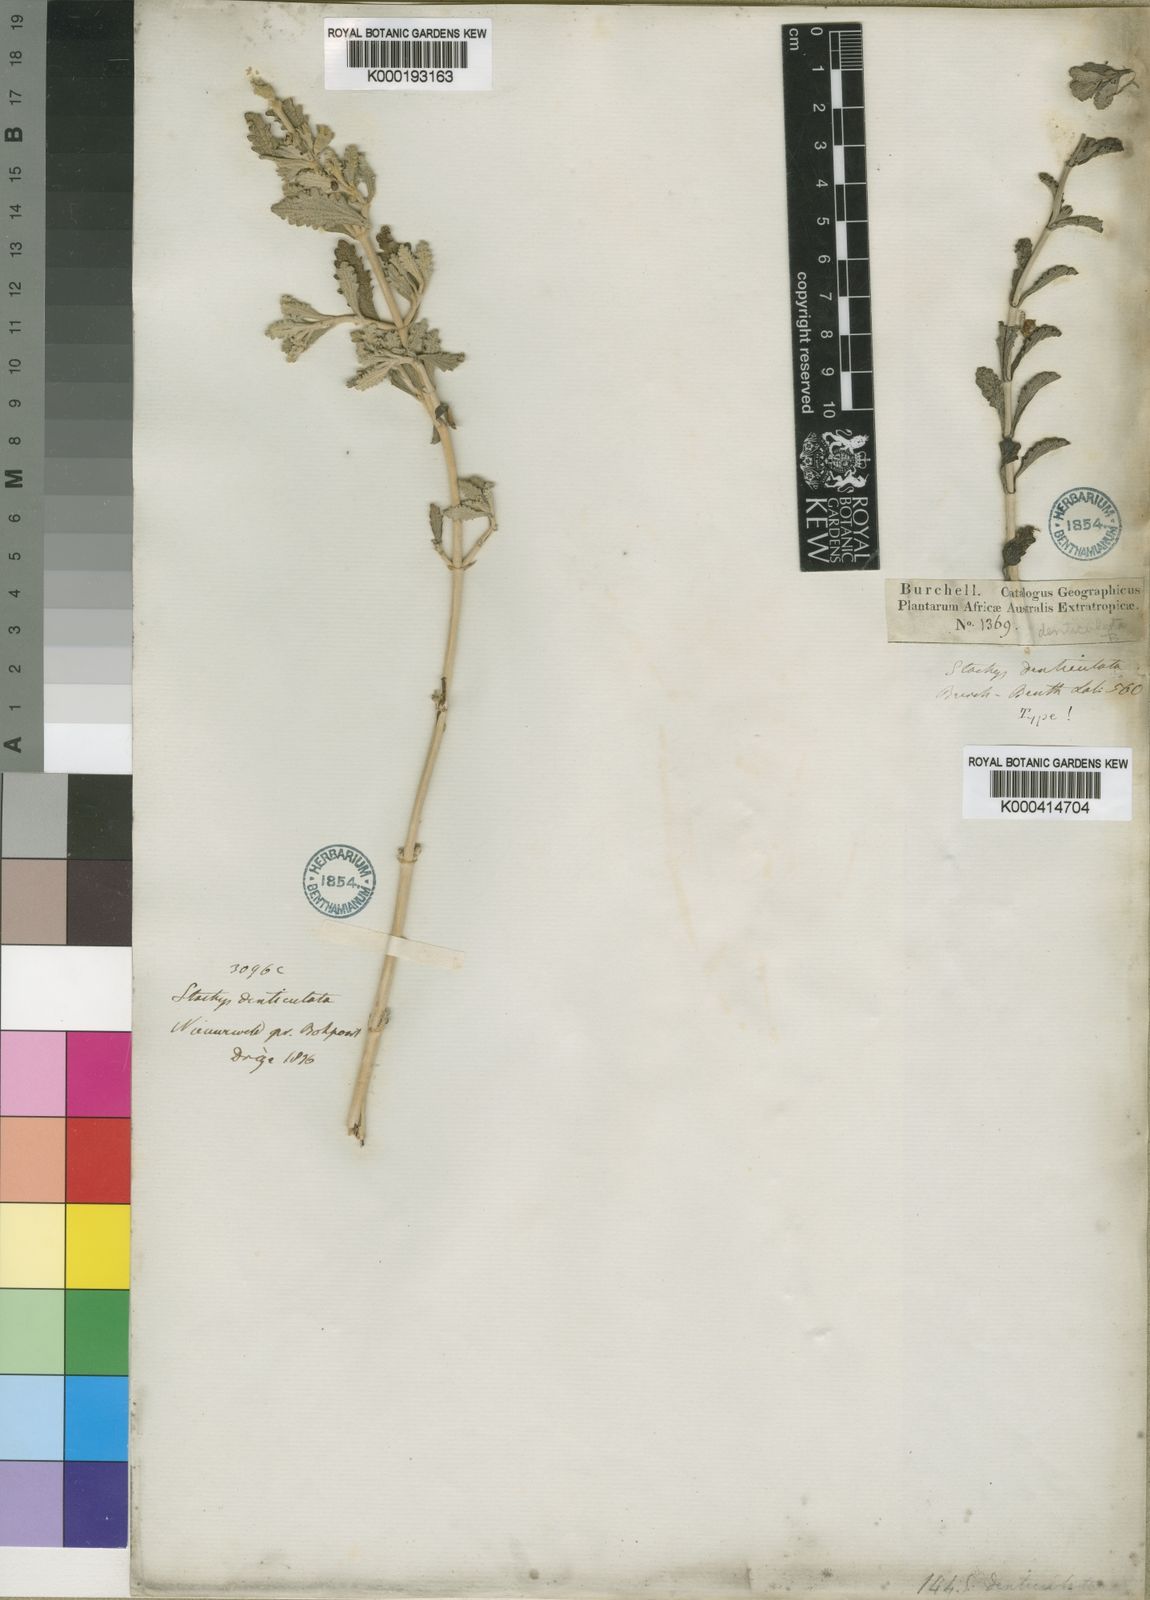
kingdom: Plantae
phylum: Tracheophyta
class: Magnoliopsida
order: Lamiales
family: Lamiaceae
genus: Stachys
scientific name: Stachys cuneata
